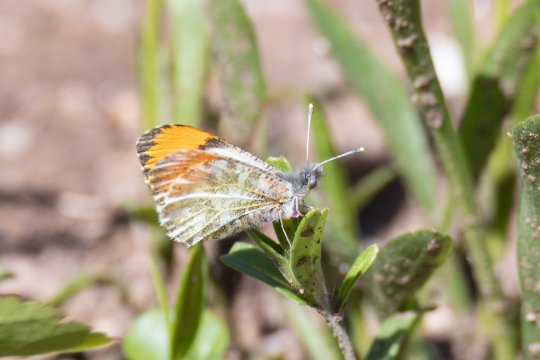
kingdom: Animalia
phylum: Arthropoda
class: Insecta
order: Lepidoptera
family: Pieridae
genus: Anthocharis
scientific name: Anthocharis julia
